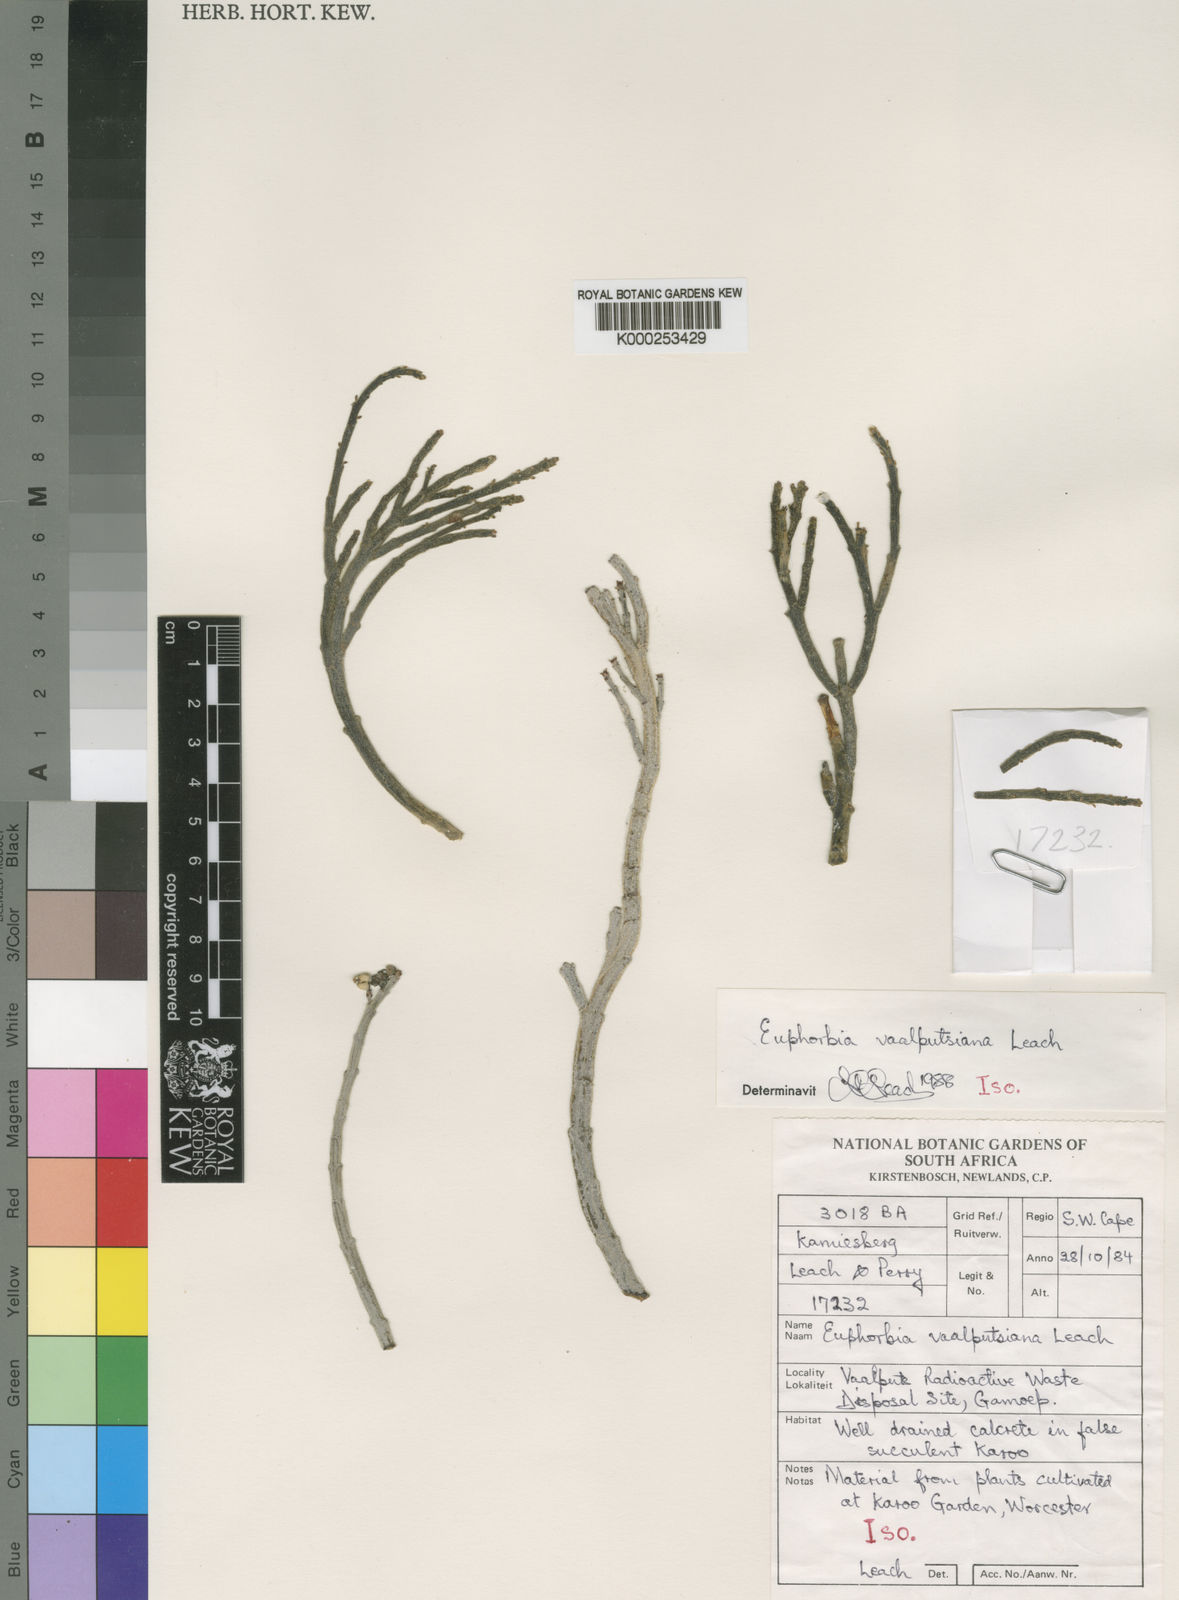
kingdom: Plantae
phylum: Tracheophyta
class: Magnoliopsida
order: Malpighiales
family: Euphorbiaceae
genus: Euphorbia
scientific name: Euphorbia gentilis
